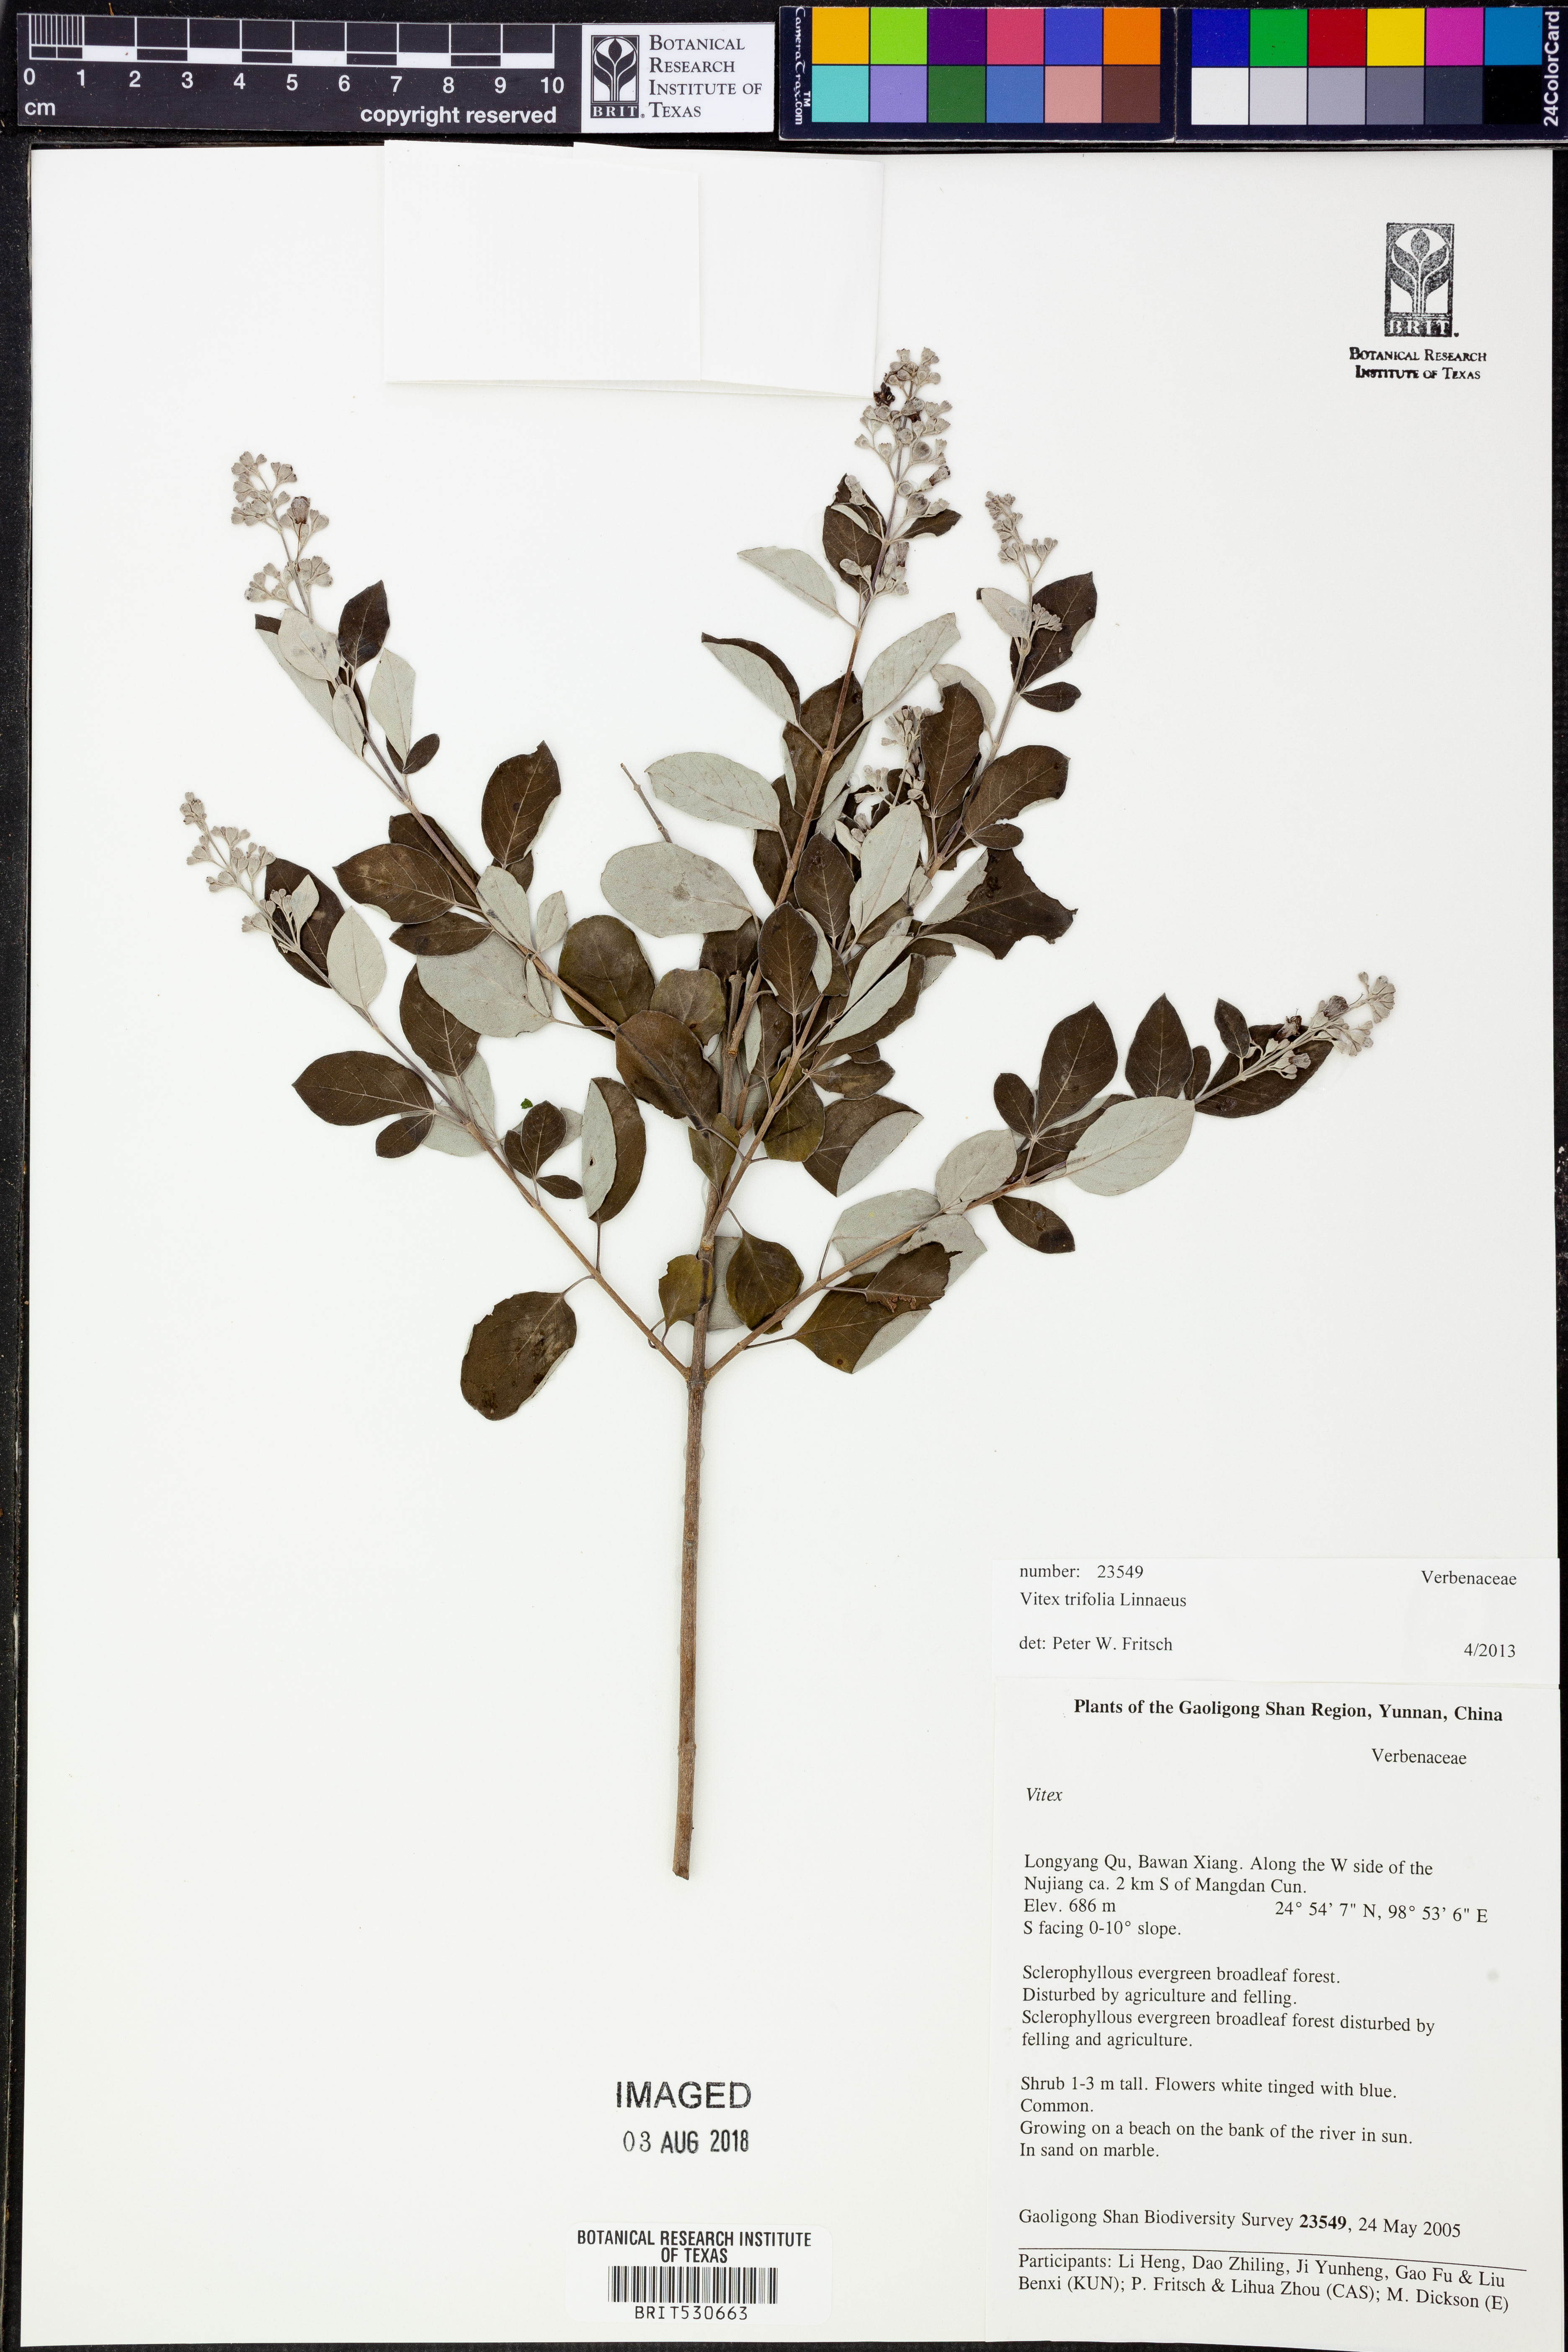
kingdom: Plantae
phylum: Tracheophyta
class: Magnoliopsida
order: Lamiales
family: Lamiaceae
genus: Vitex
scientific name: Vitex trifolia
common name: Simpleleaf chastetree
